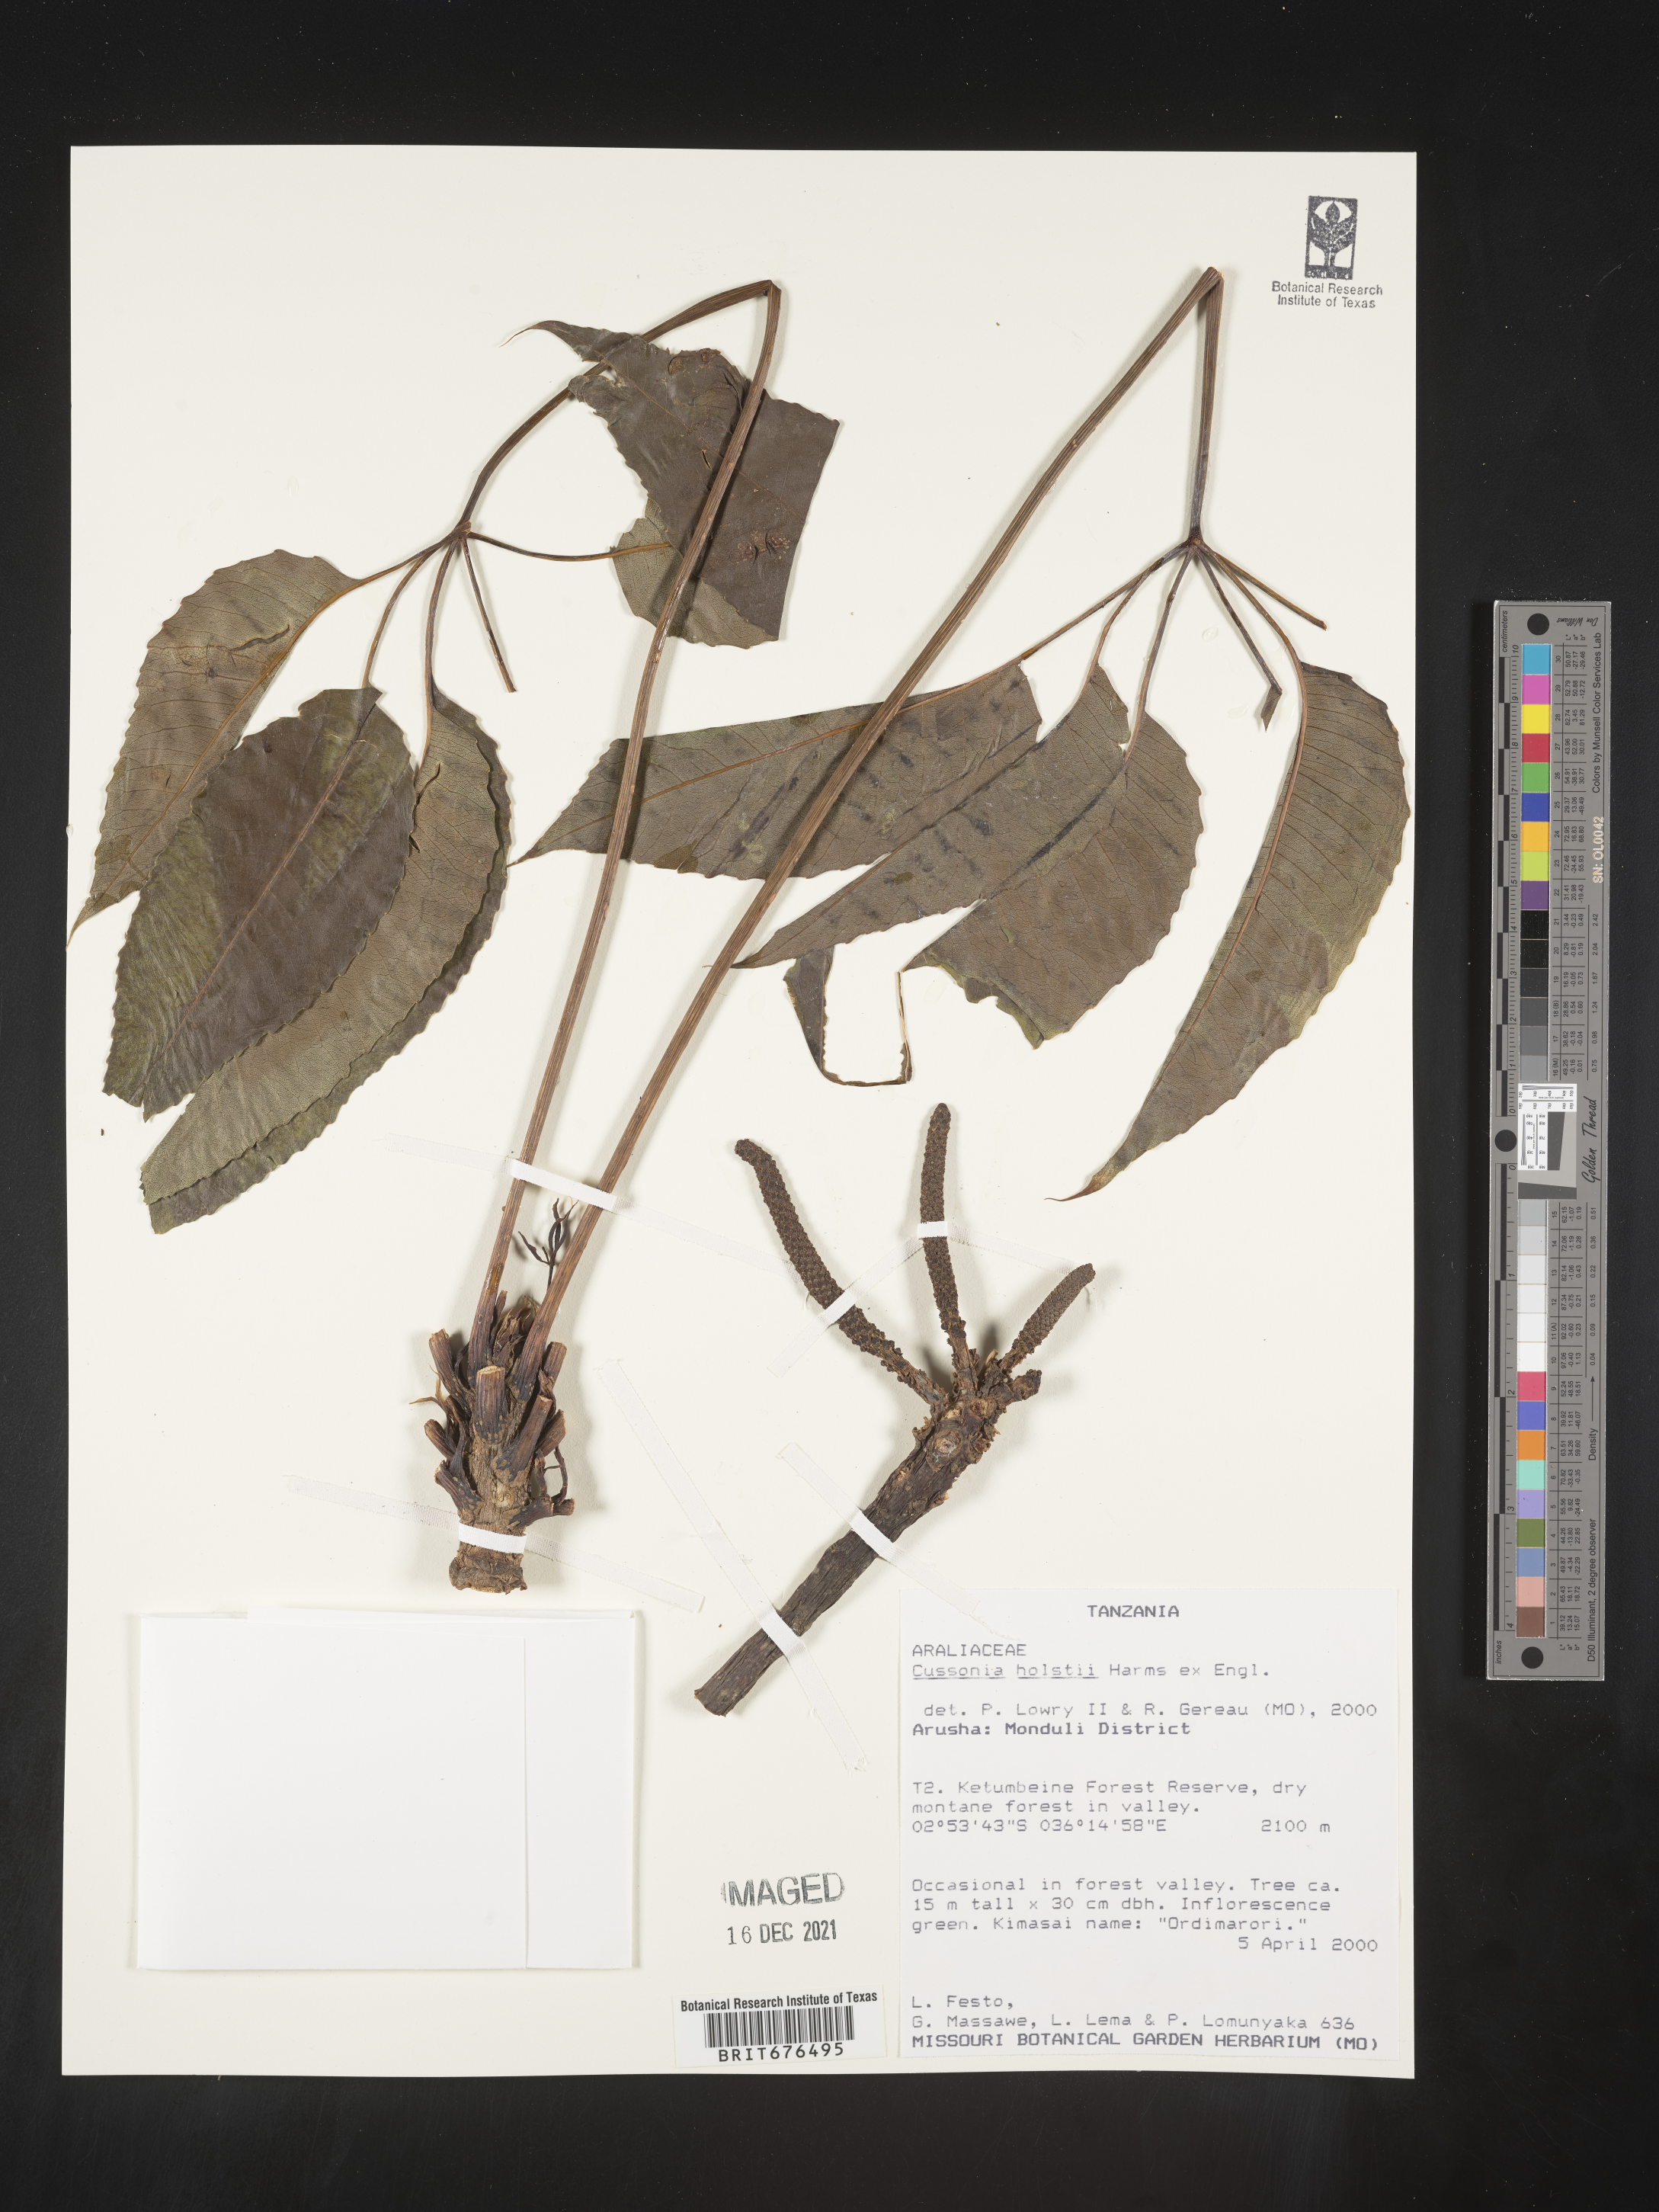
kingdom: Plantae
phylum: Tracheophyta
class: Magnoliopsida
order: Apiales
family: Araliaceae
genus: Cussonia
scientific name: Cussonia
